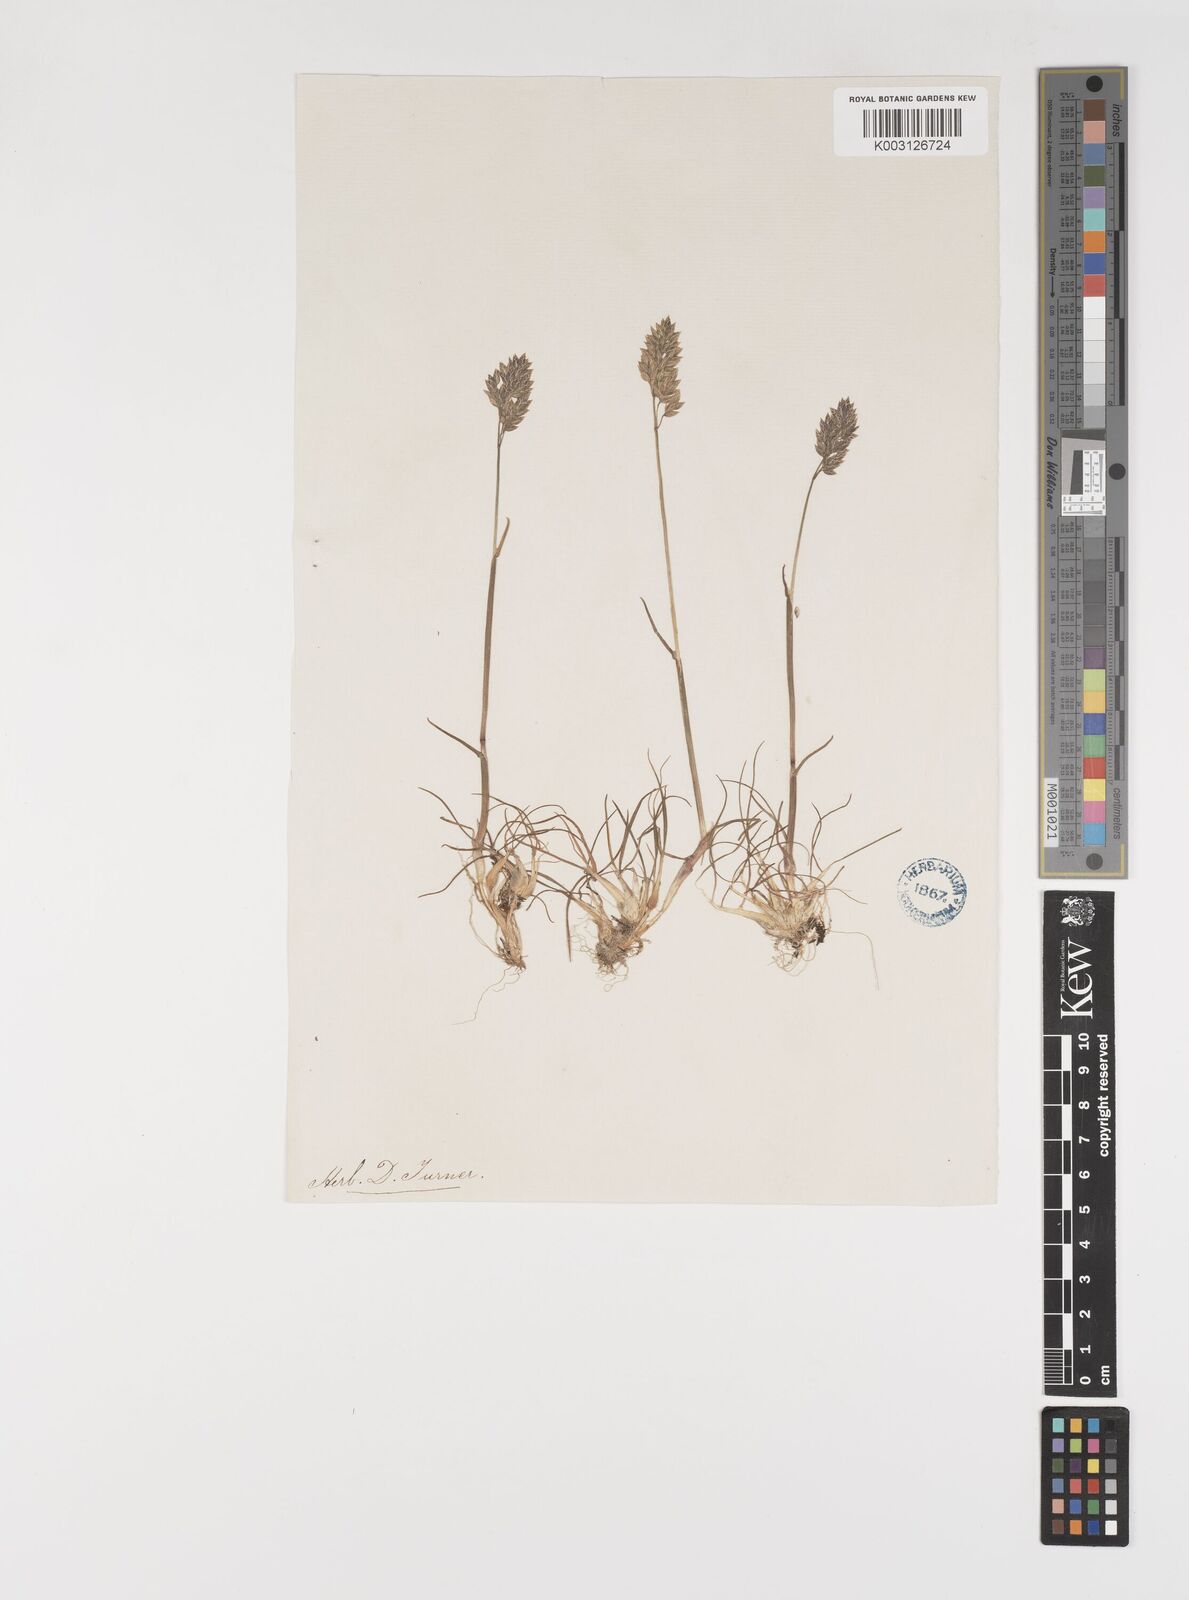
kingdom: Plantae
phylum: Tracheophyta
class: Liliopsida
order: Poales
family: Poaceae
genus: Poa
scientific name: Poa bulbosa
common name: Bulbous bluegrass
